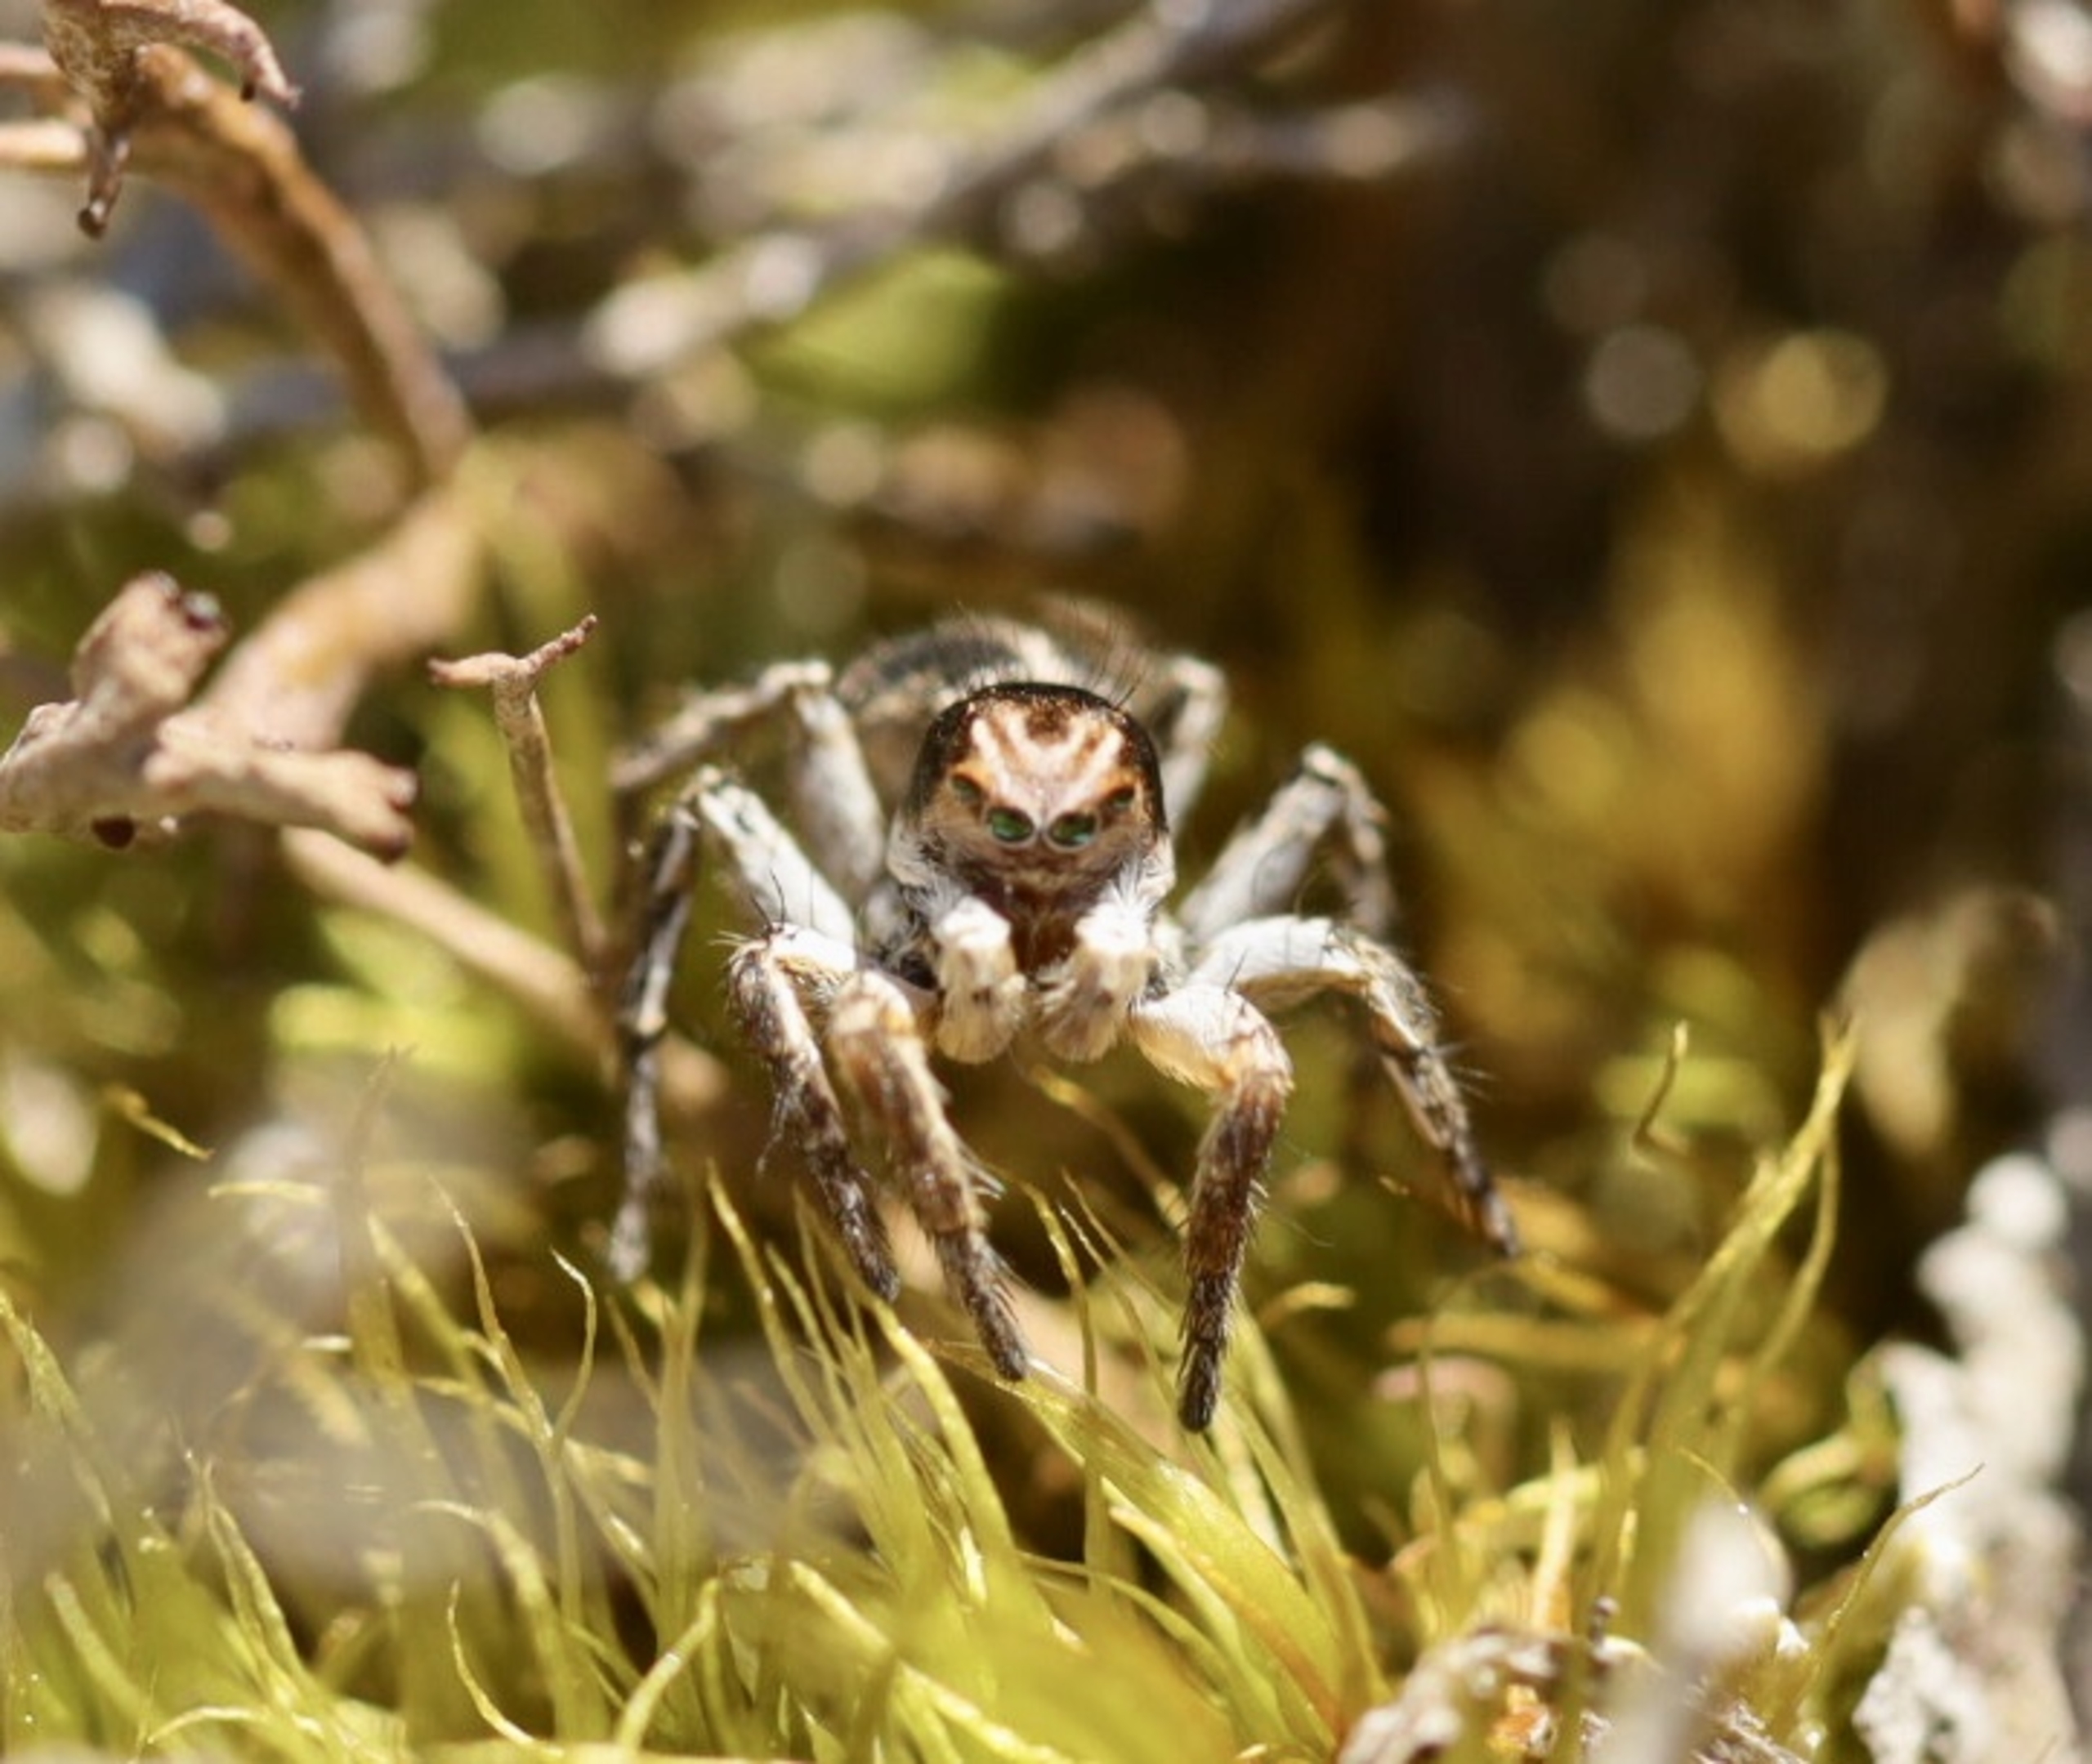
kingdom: Animalia
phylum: Arthropoda
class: Arachnida
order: Araneae
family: Salticidae
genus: Aelurillus
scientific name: Aelurillus v-insignitus
